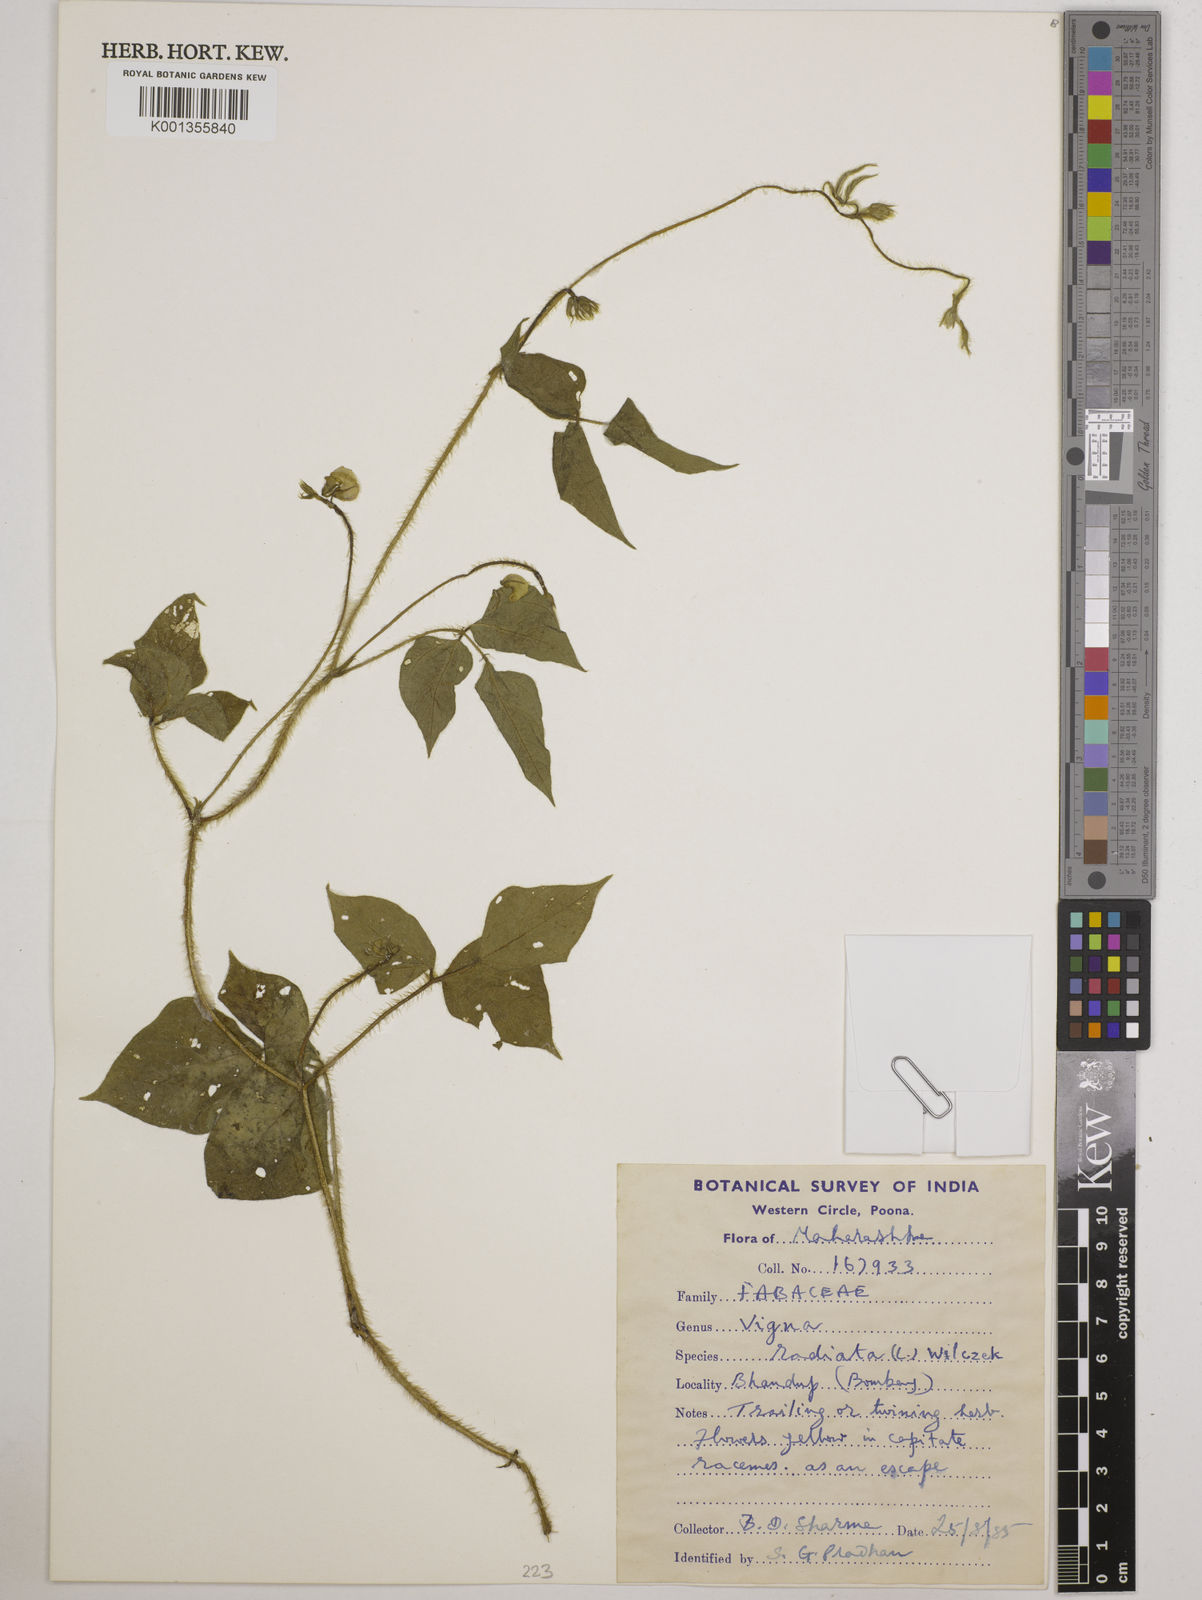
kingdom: Plantae
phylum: Tracheophyta
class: Magnoliopsida
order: Fabales
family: Fabaceae
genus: Vigna
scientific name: Vigna radiata
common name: Mung-bean
